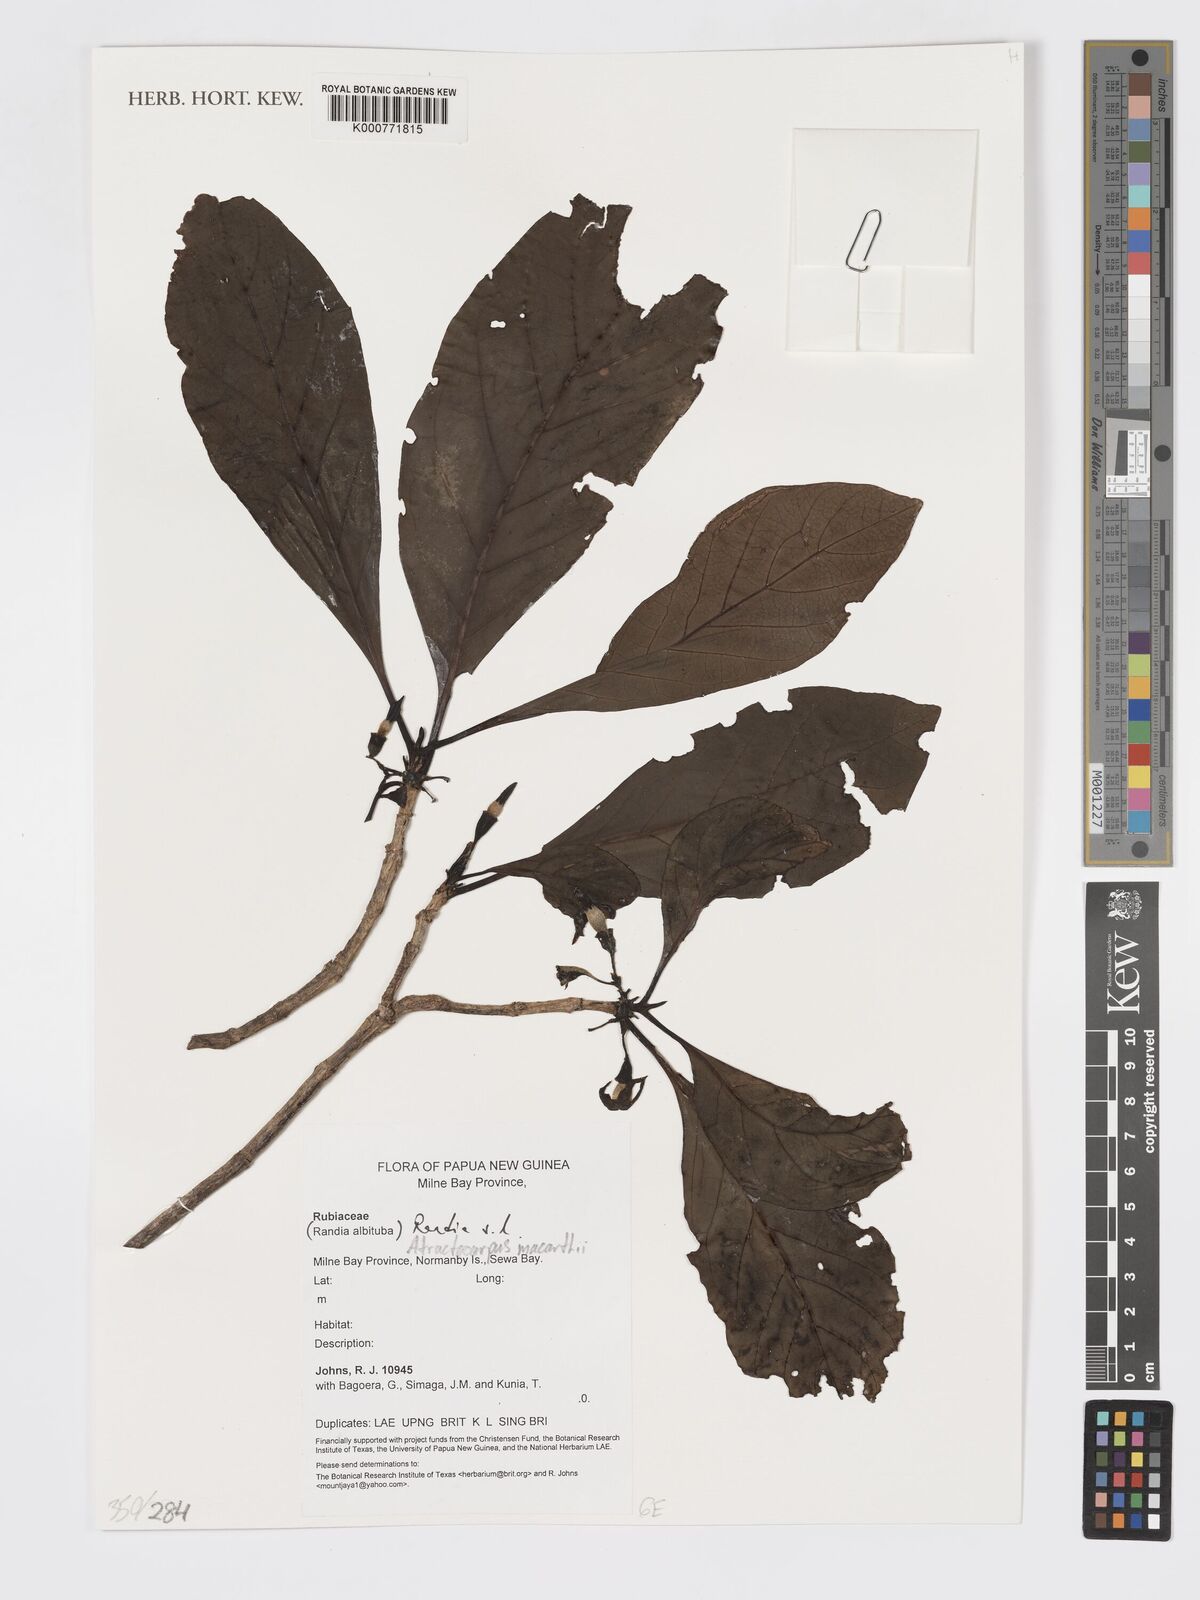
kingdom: Plantae
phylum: Tracheophyta
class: Magnoliopsida
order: Gentianales
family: Rubiaceae
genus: Randia
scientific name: Randia
